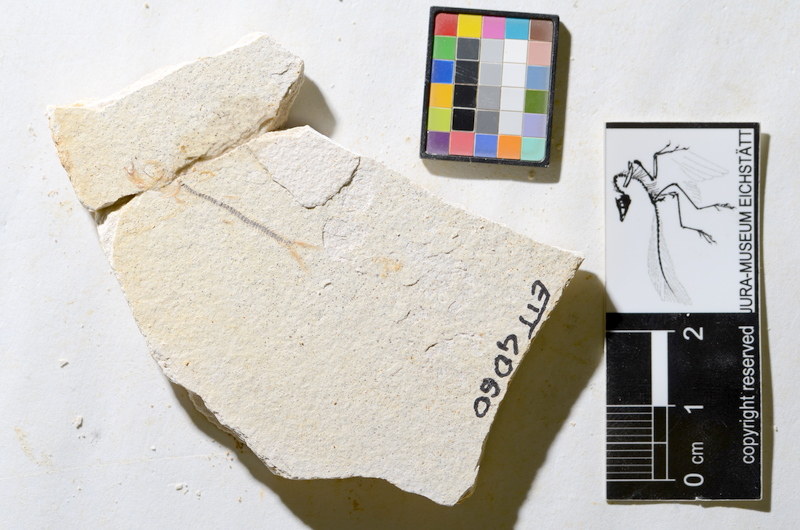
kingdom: Animalia
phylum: Chordata
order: Salmoniformes
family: Orthogonikleithridae
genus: Orthogonikleithrus
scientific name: Orthogonikleithrus hoelli
